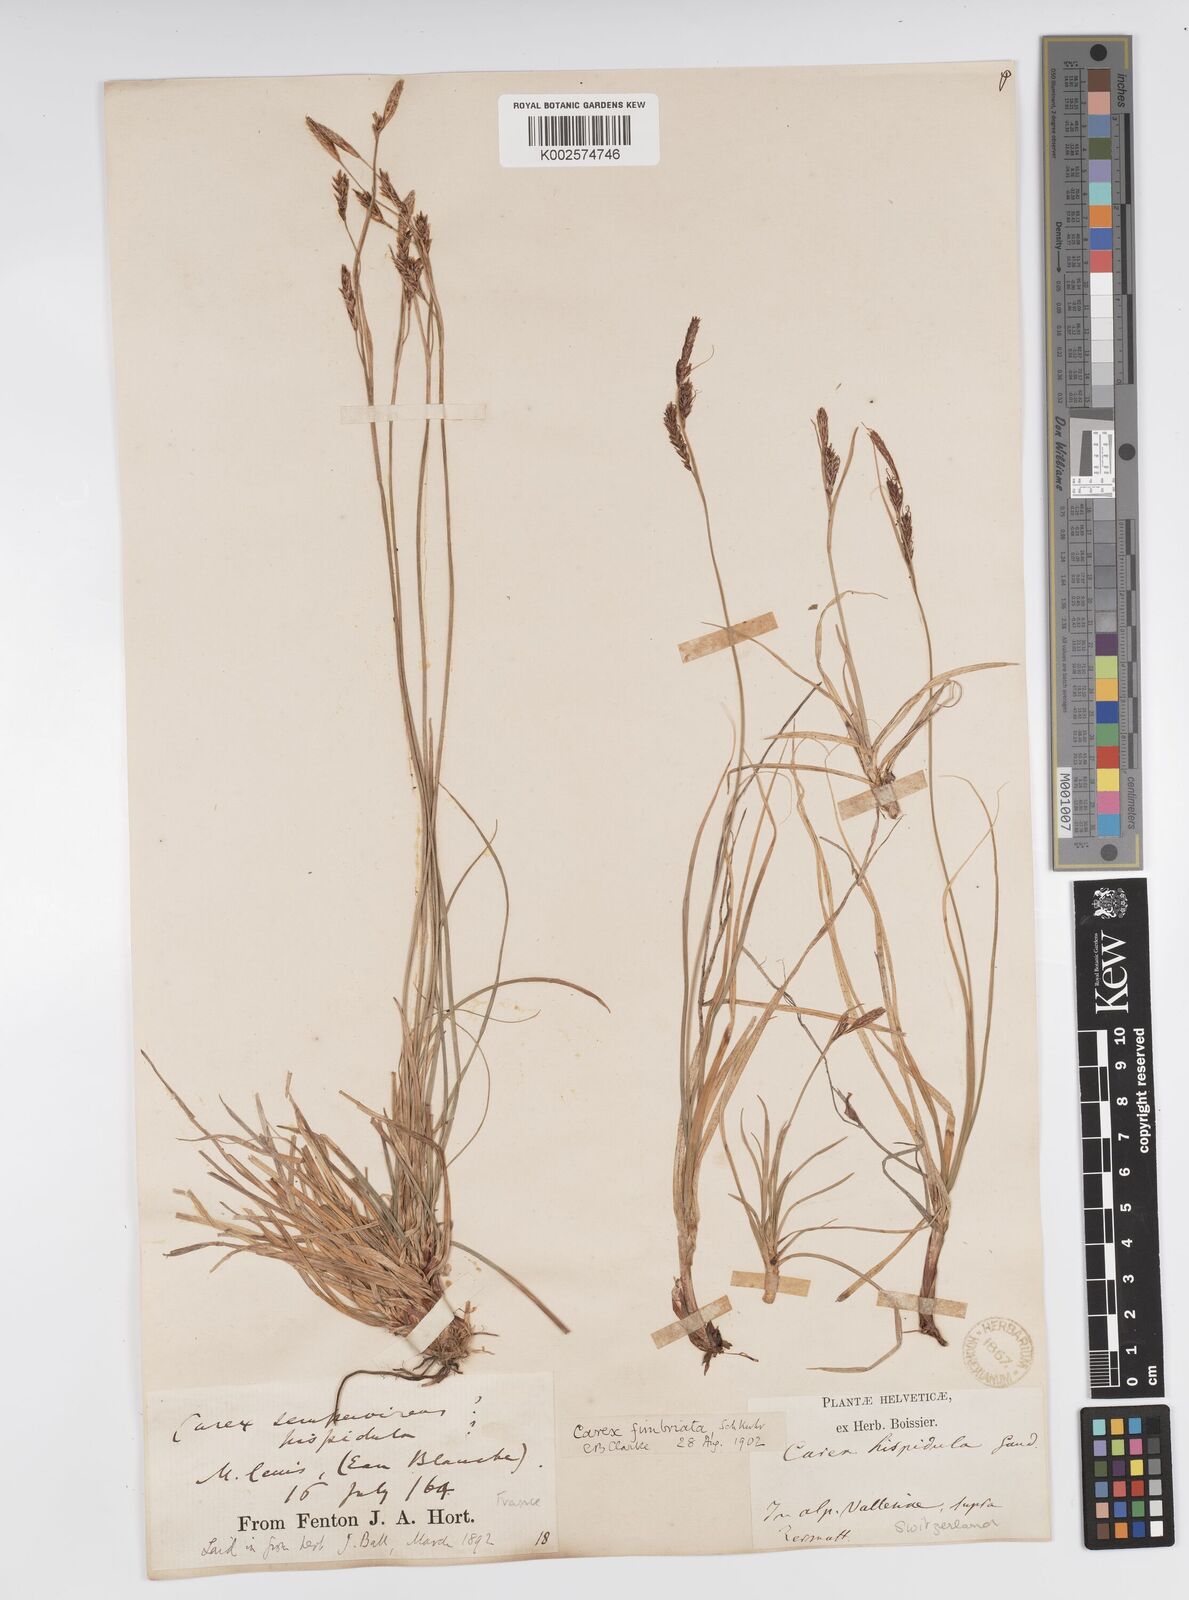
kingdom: Plantae
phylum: Tracheophyta
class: Liliopsida
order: Poales
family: Cyperaceae
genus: Carex
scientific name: Carex fimbriata
